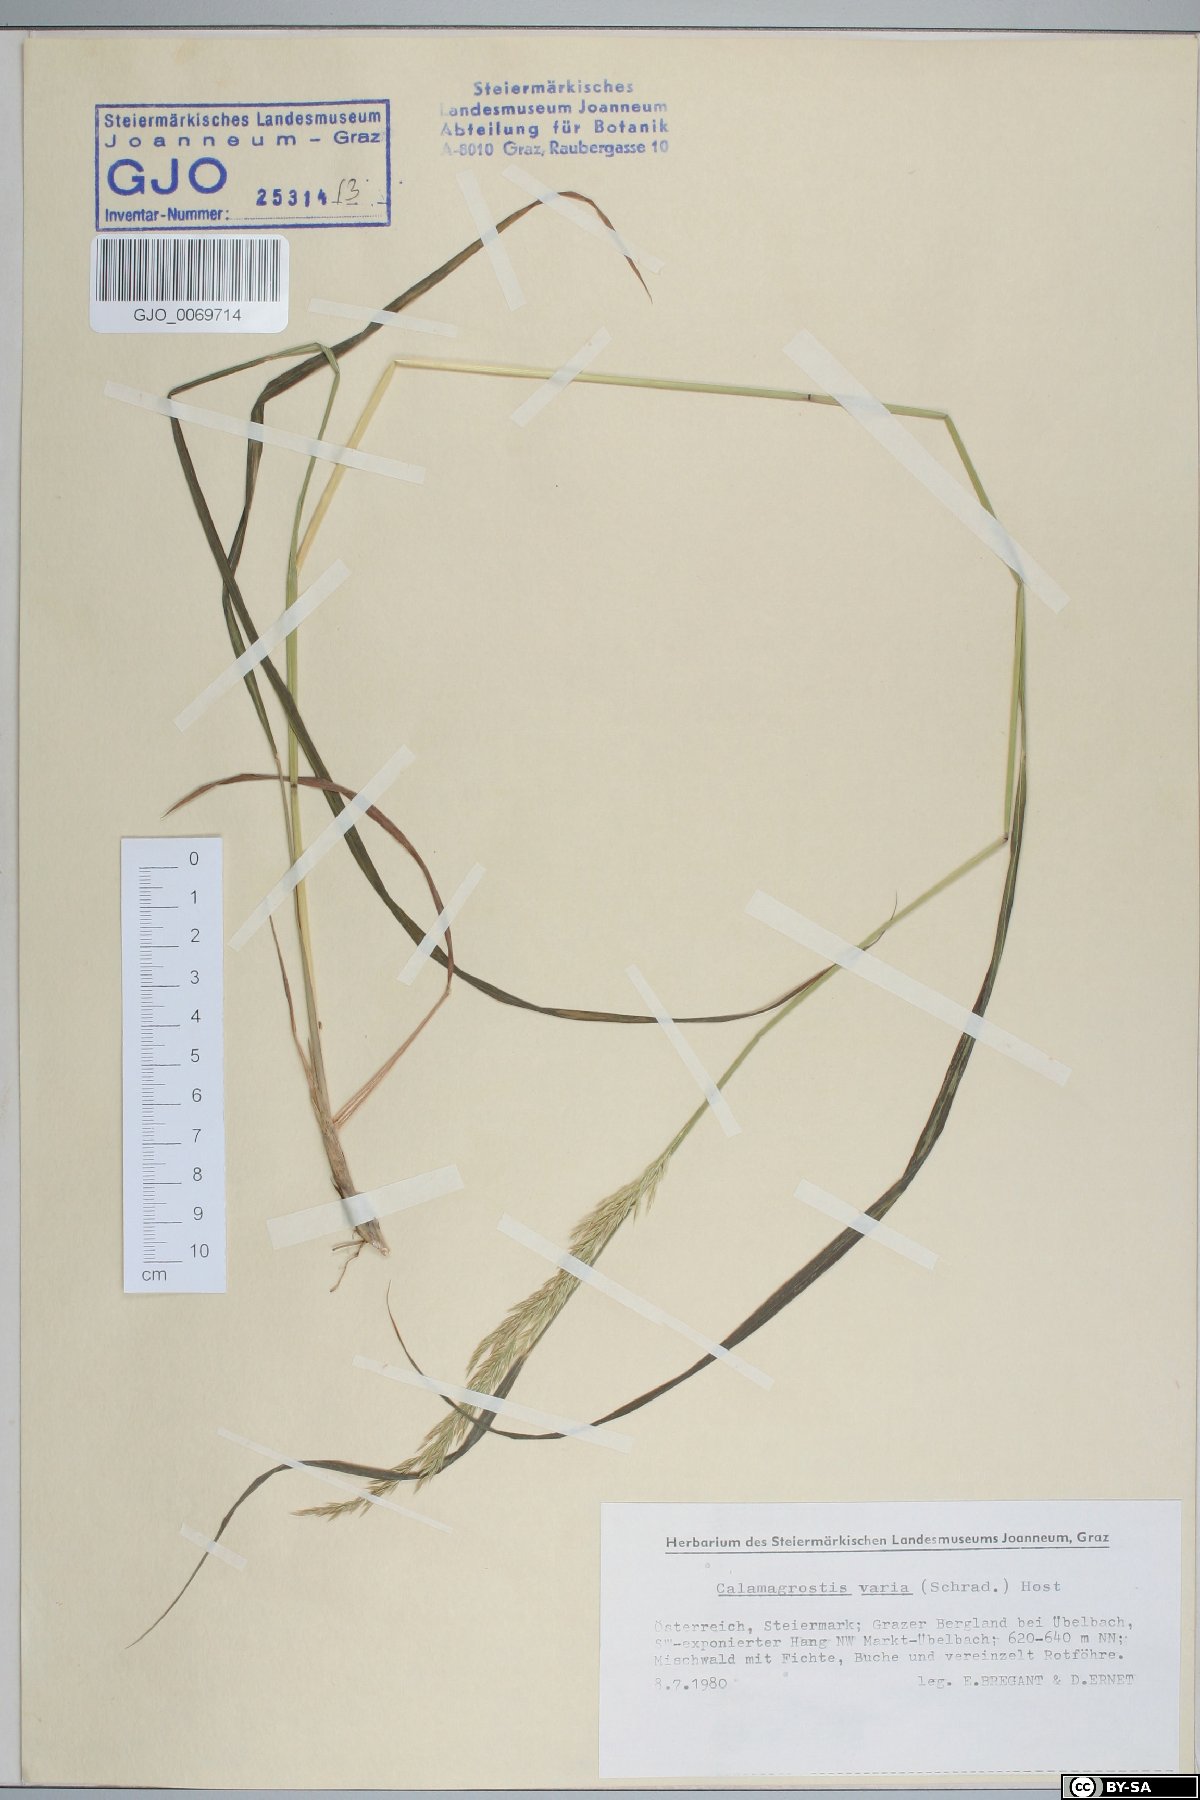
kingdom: Plantae
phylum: Tracheophyta
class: Liliopsida
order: Poales
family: Poaceae
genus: Calamagrostis
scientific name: Calamagrostis varia
